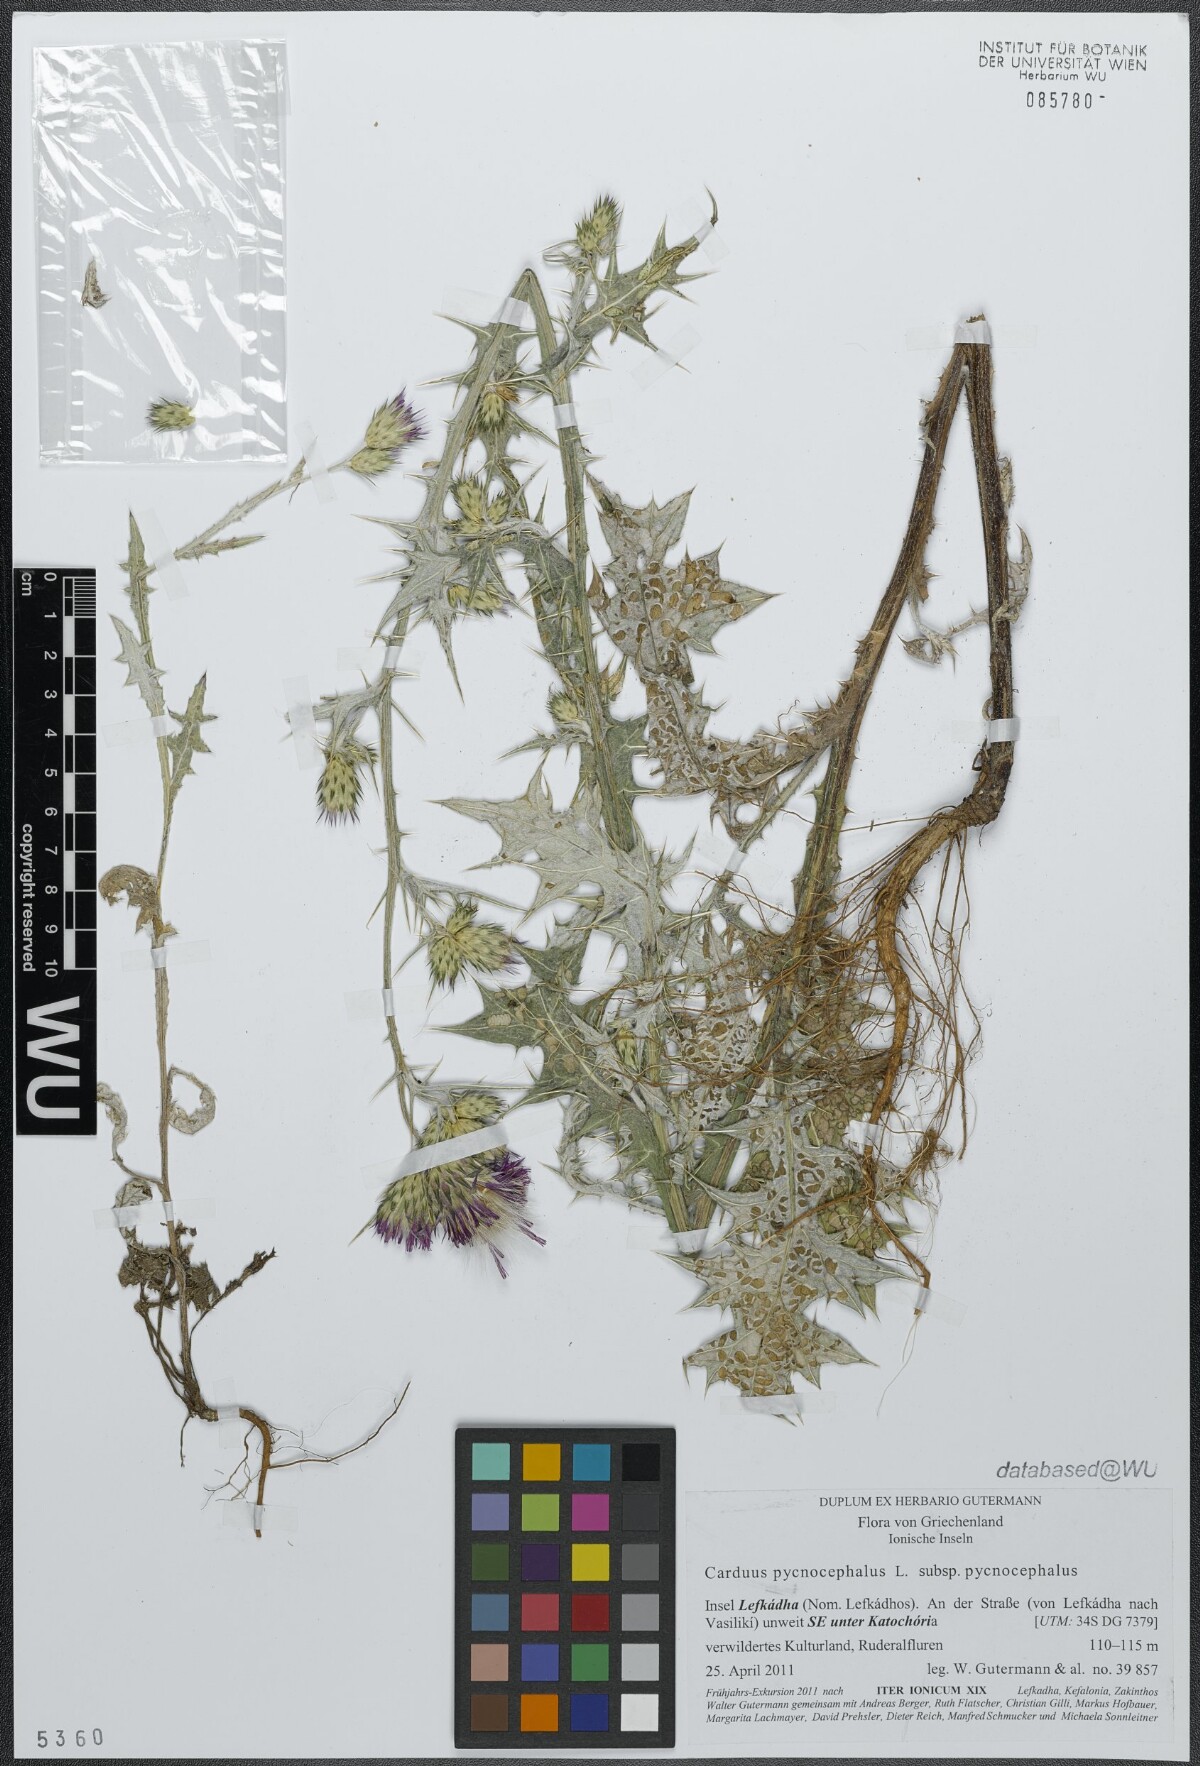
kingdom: Plantae
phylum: Tracheophyta
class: Magnoliopsida
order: Asterales
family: Asteraceae
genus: Carduus
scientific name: Carduus pycnocephalus
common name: Plymouth thistle
